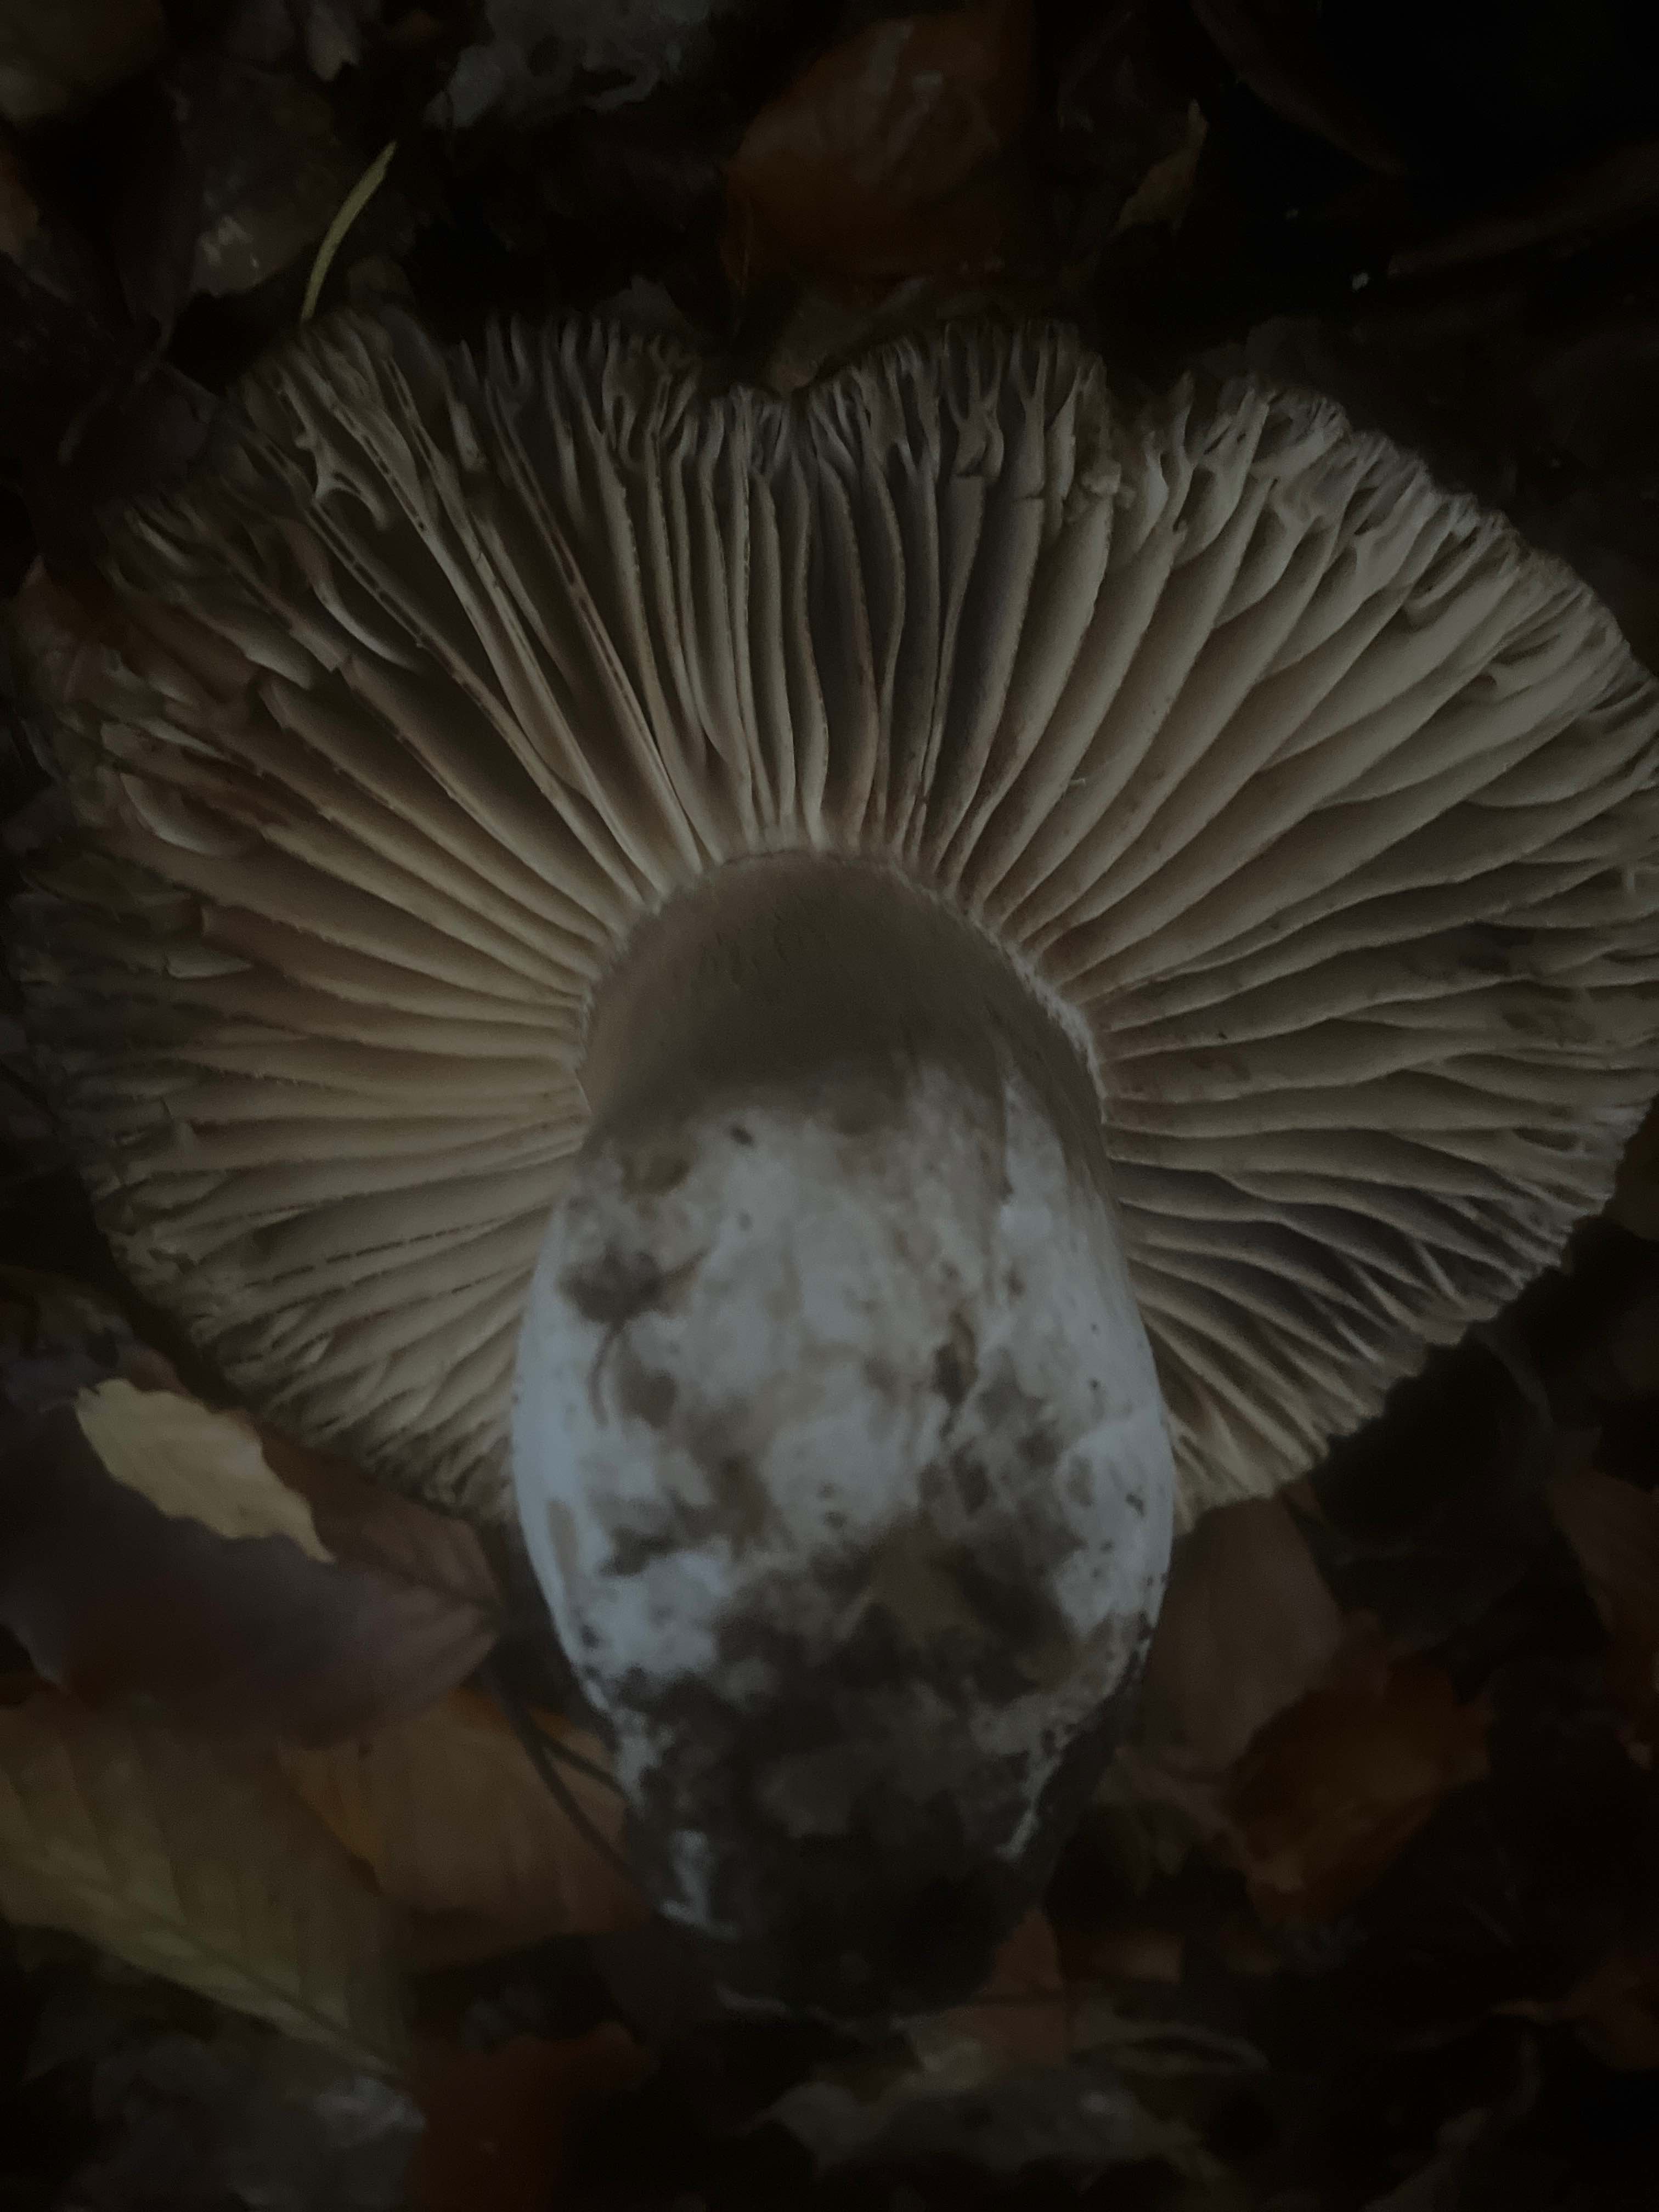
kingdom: Fungi
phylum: Basidiomycota
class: Agaricomycetes
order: Russulales
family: Russulaceae
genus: Russula
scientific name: Russula adusta
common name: sværtende skørhat
